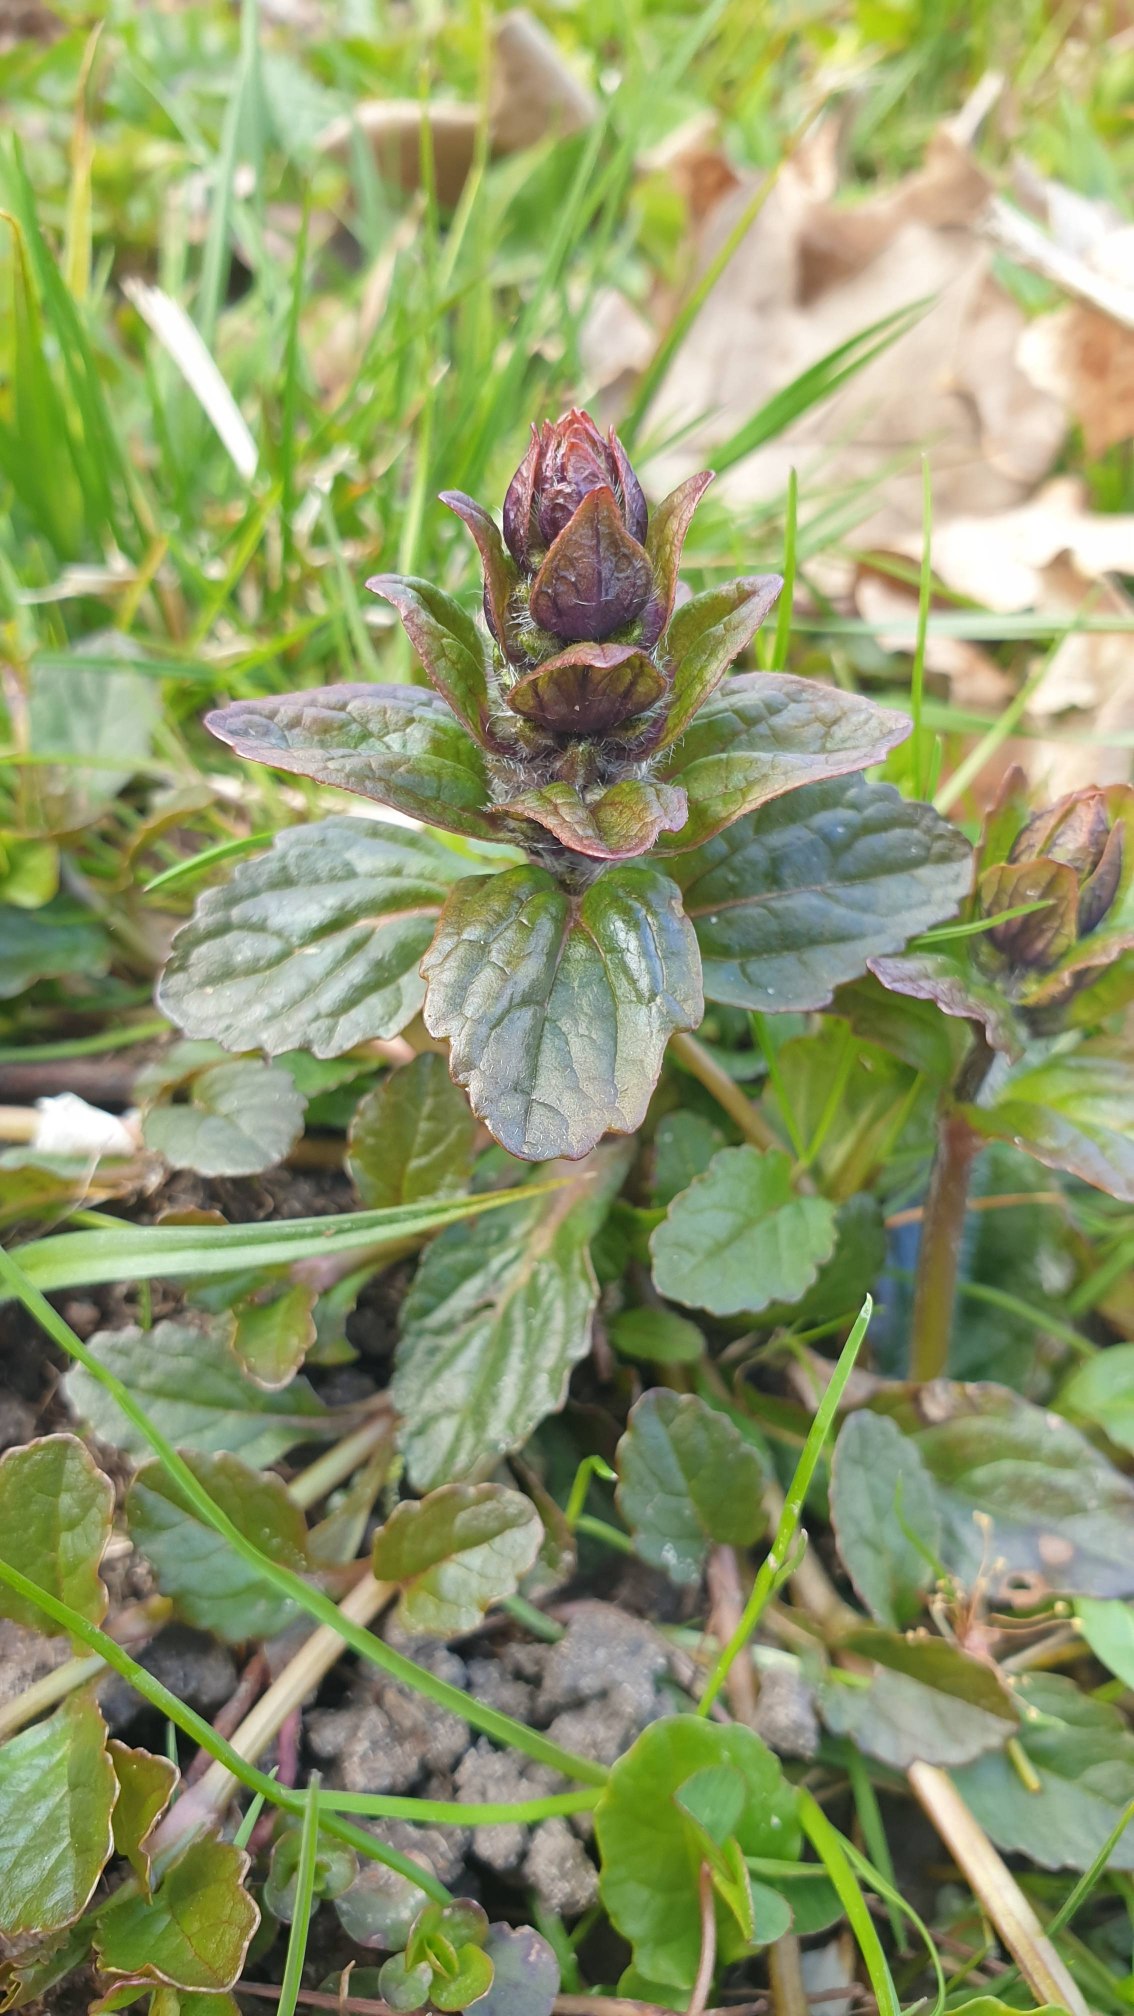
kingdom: Plantae
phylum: Tracheophyta
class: Magnoliopsida
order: Lamiales
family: Lamiaceae
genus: Ajuga
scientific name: Ajuga reptans
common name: Krybende læbeløs
